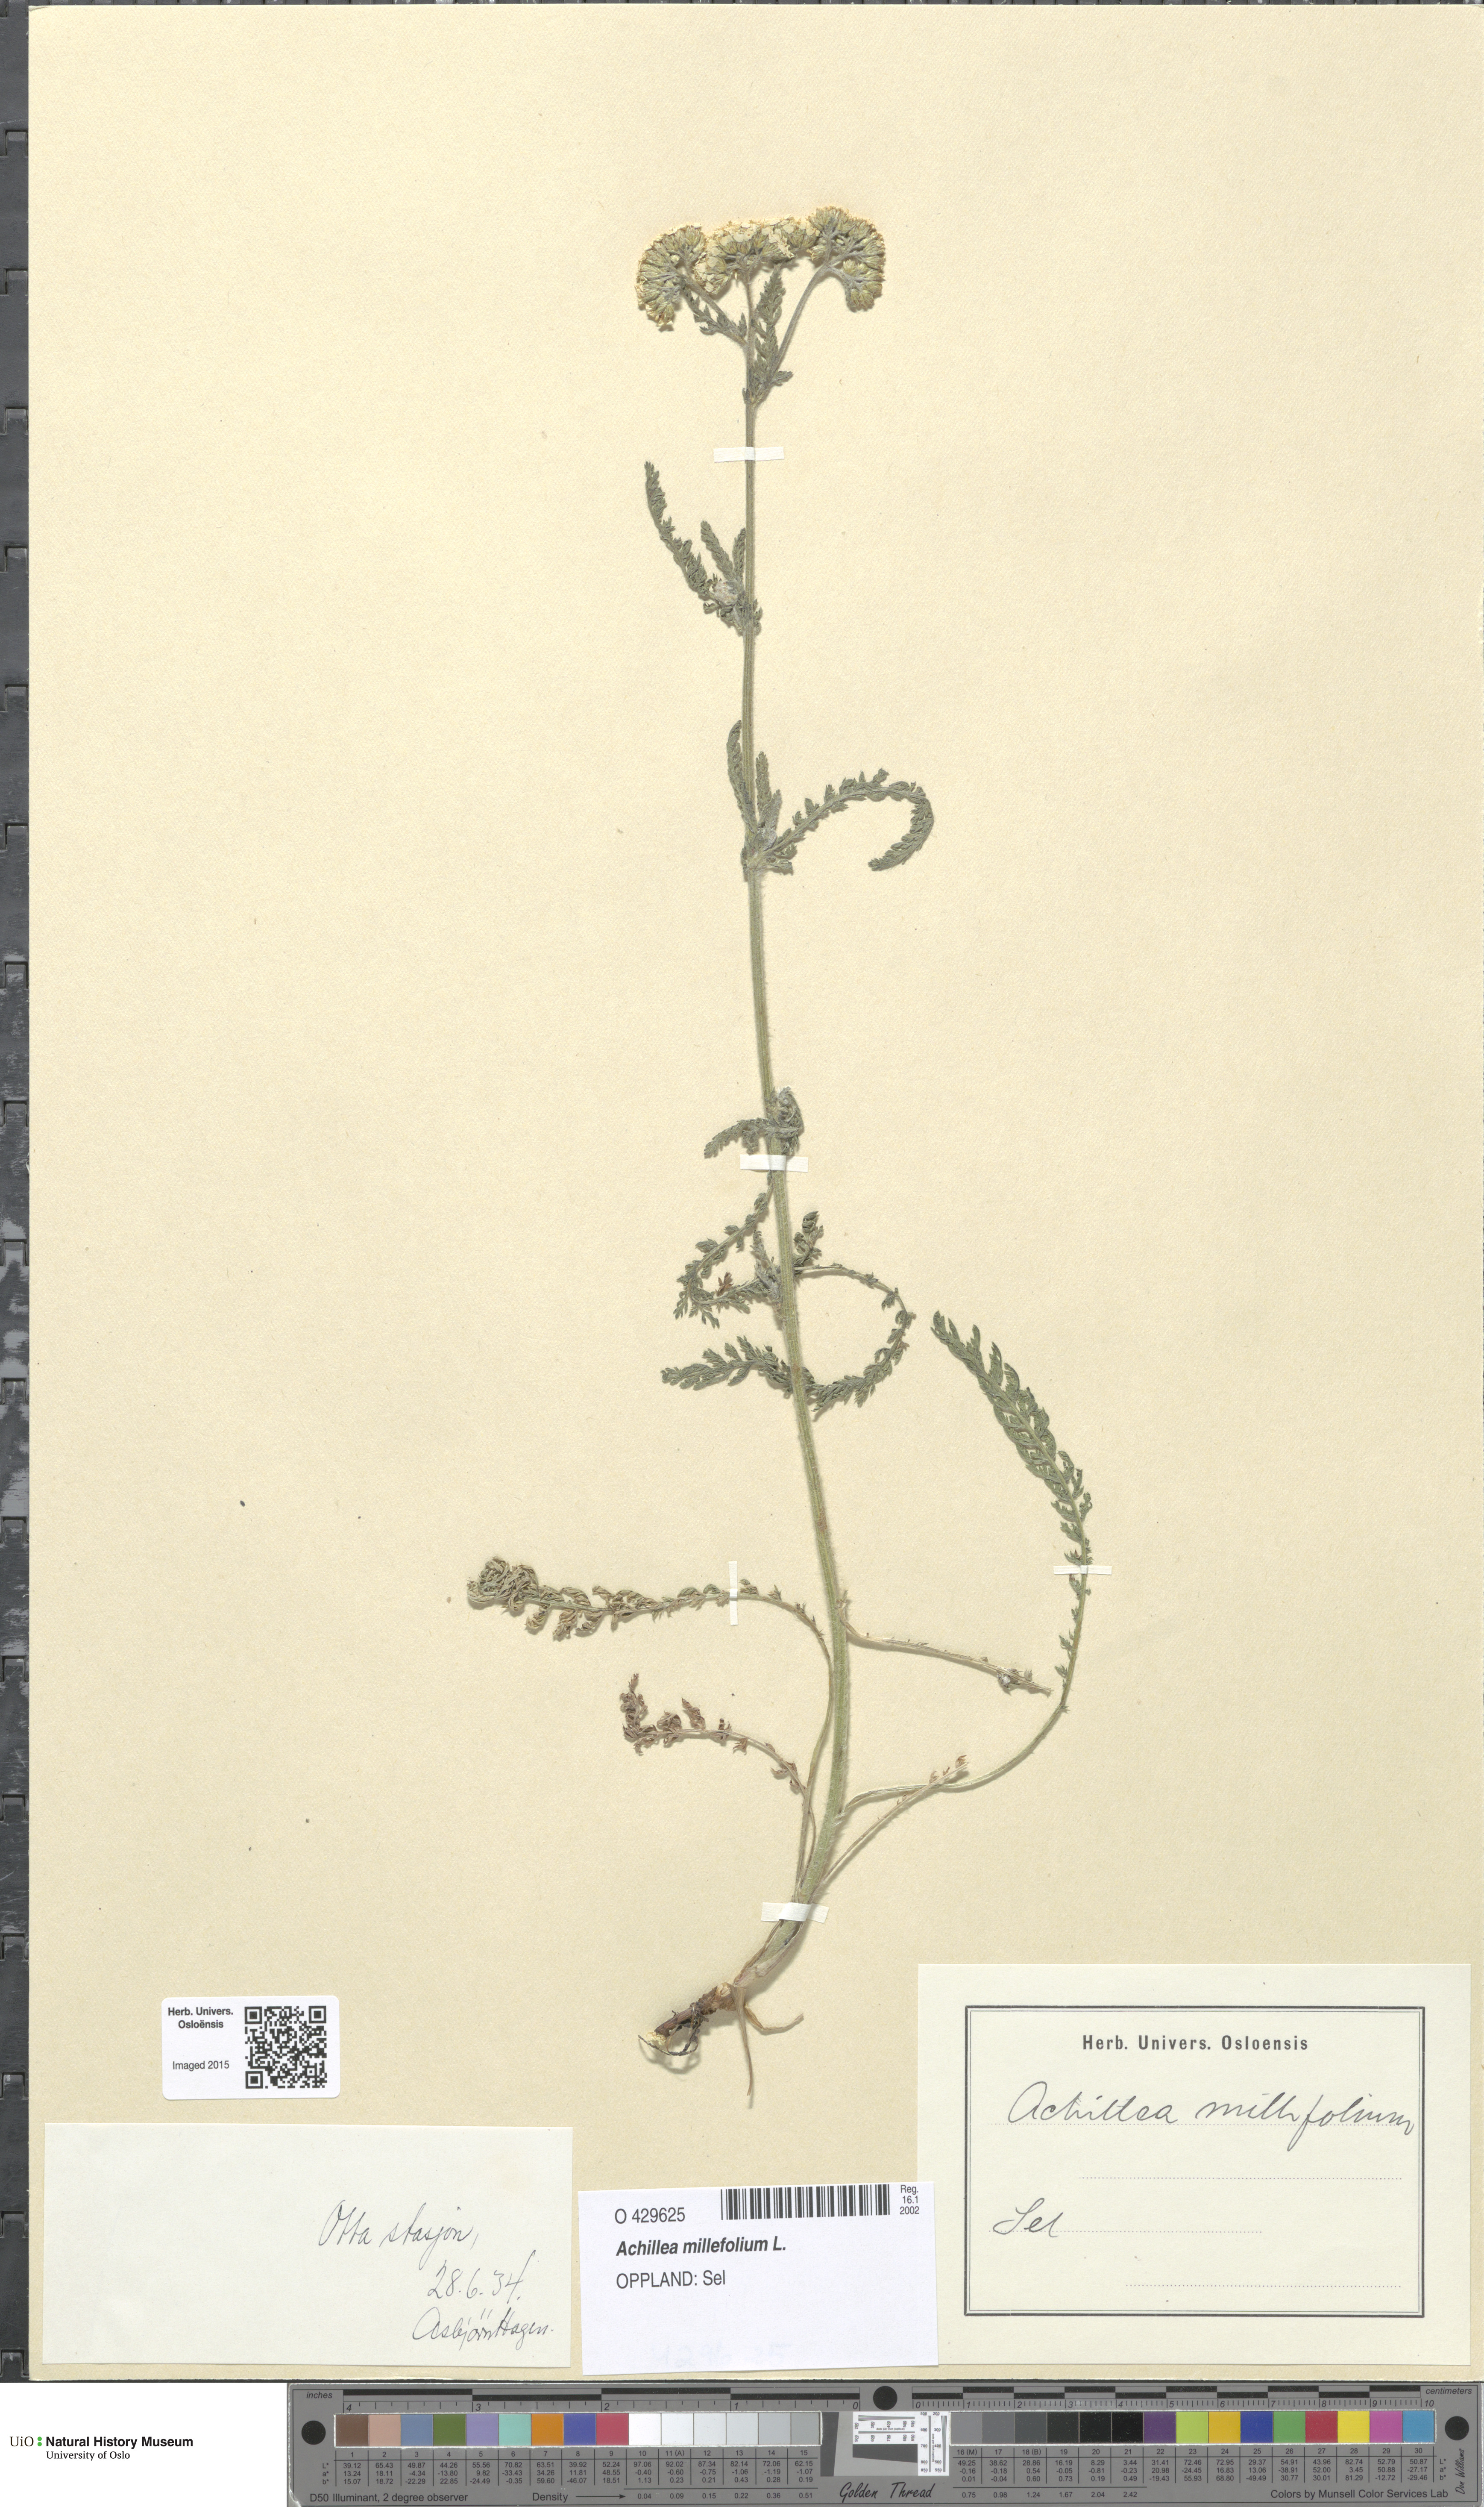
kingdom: Plantae
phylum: Tracheophyta
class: Magnoliopsida
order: Asterales
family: Asteraceae
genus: Achillea
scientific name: Achillea millefolium
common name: Yarrow
